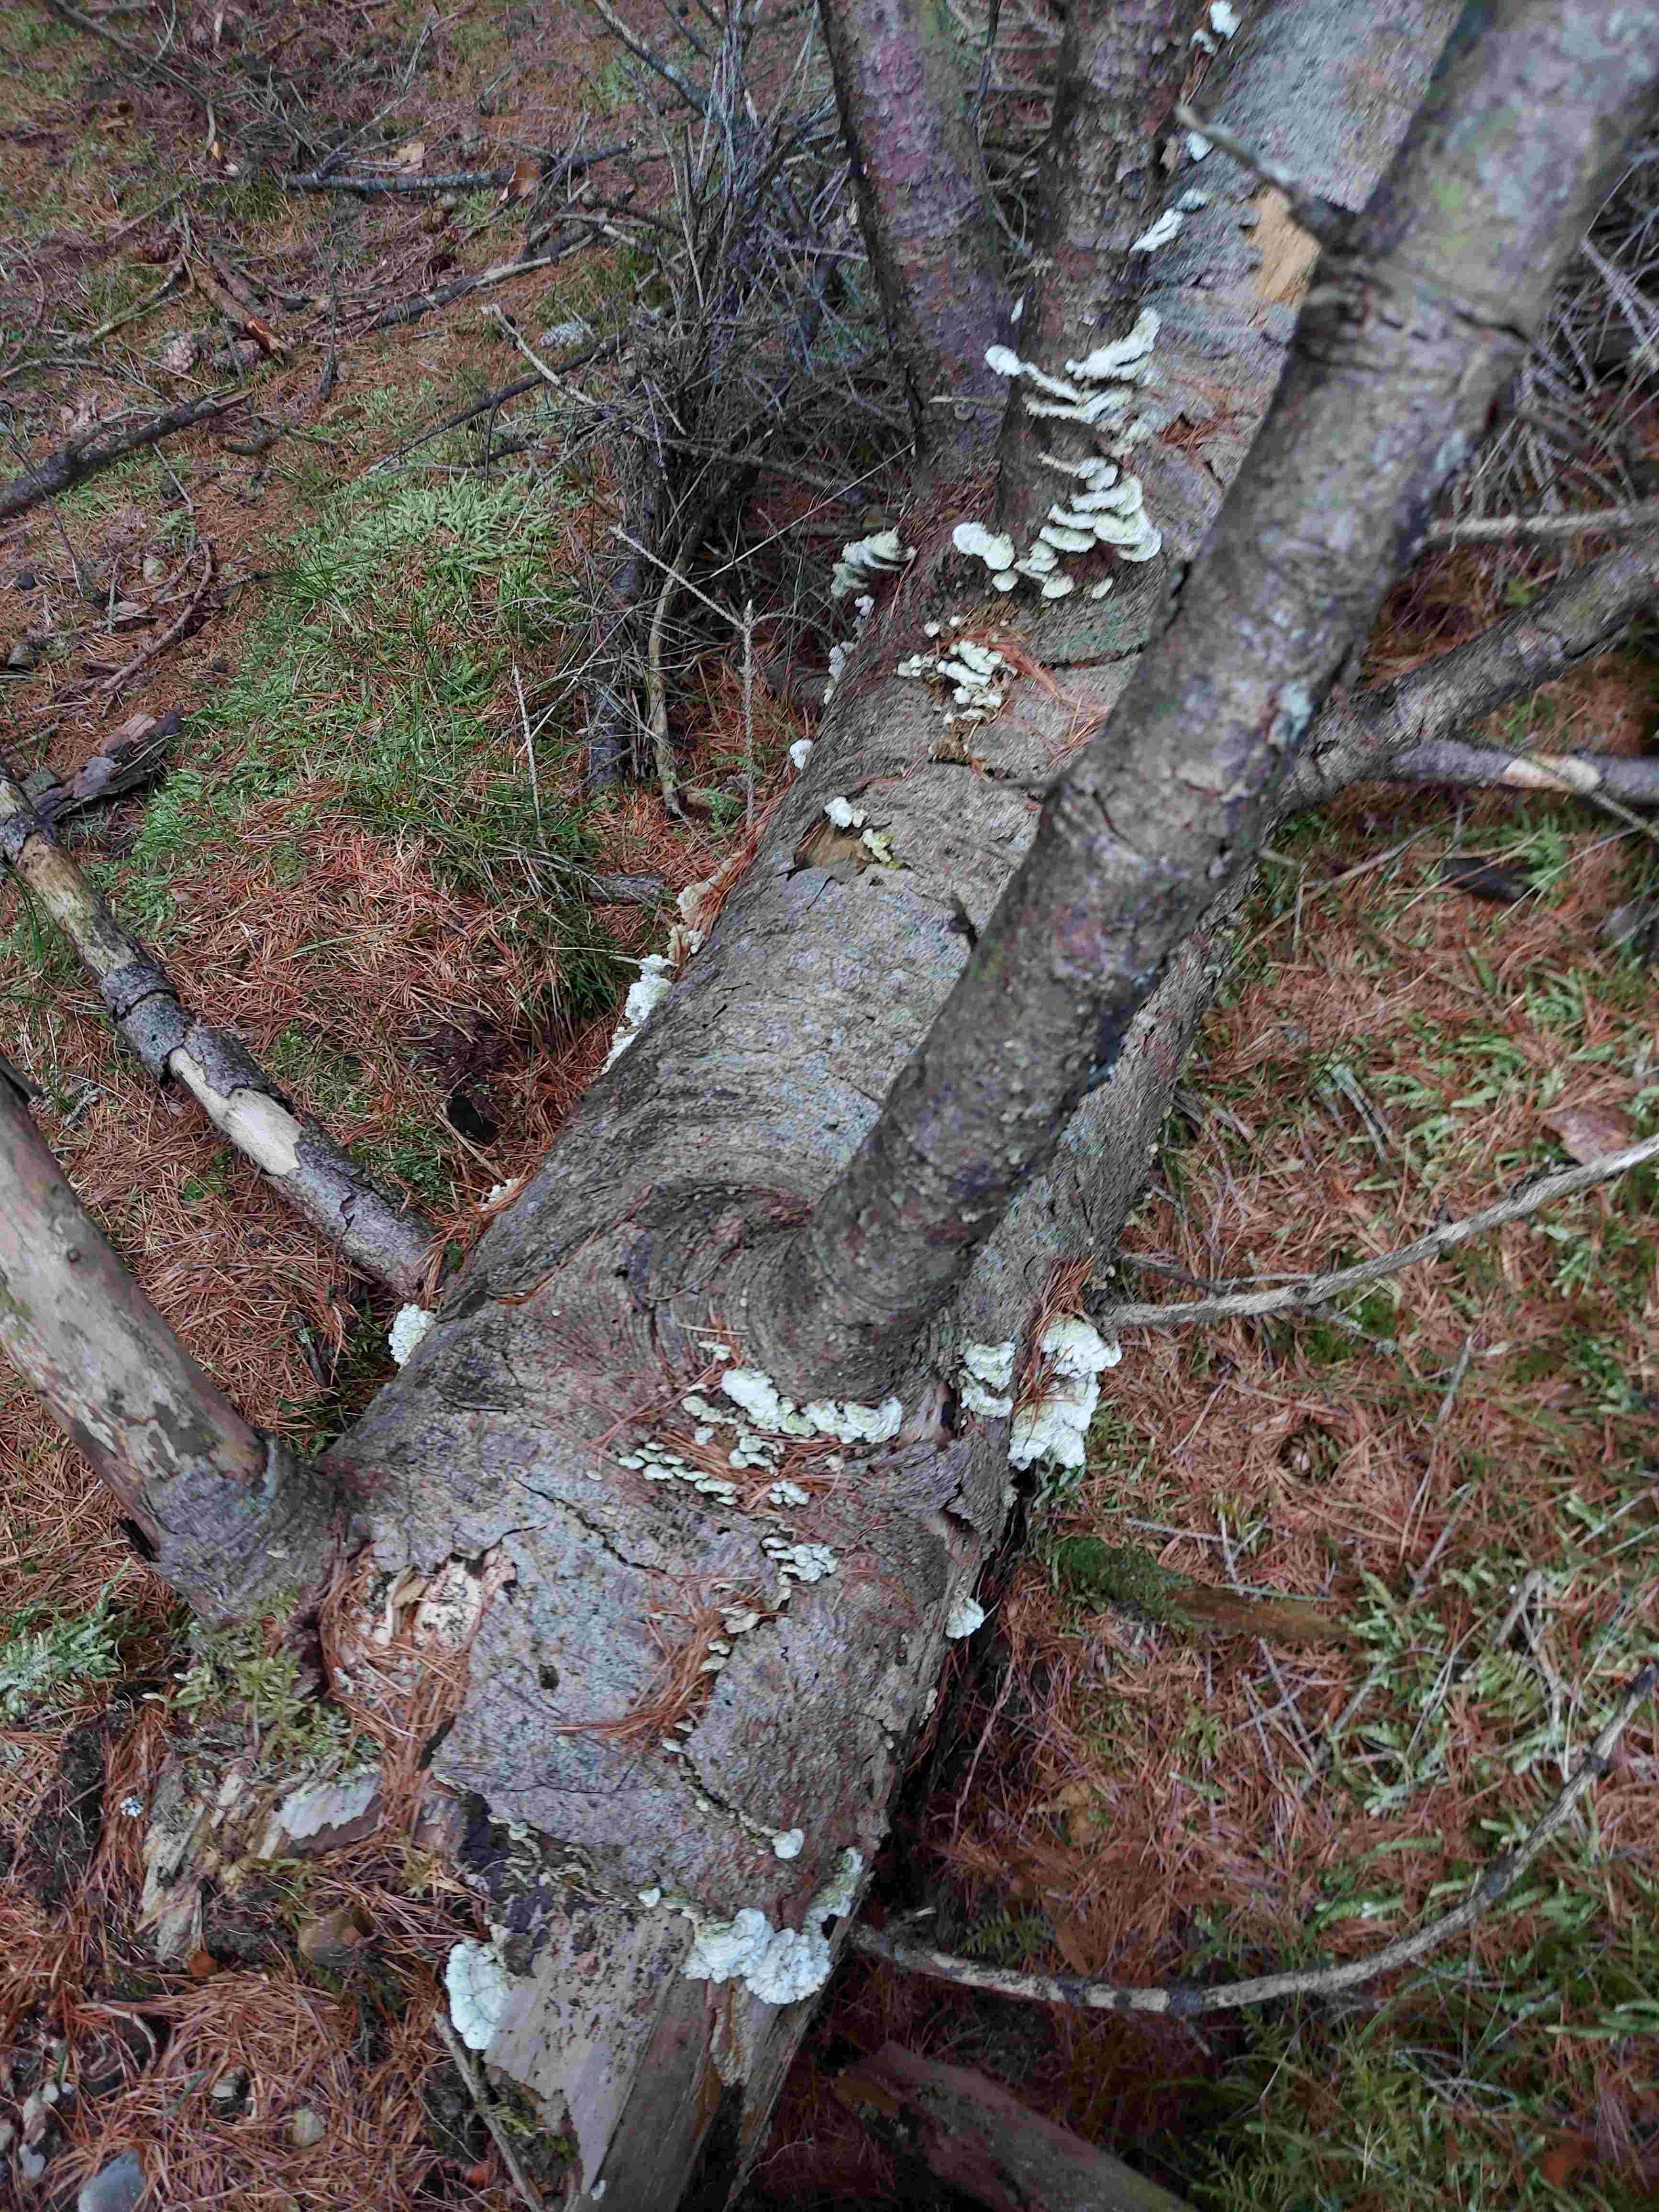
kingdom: Fungi
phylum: Basidiomycota
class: Agaricomycetes
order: Hymenochaetales
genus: Trichaptum
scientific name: Trichaptum fuscoviolaceum
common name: tandet violporesvamp
